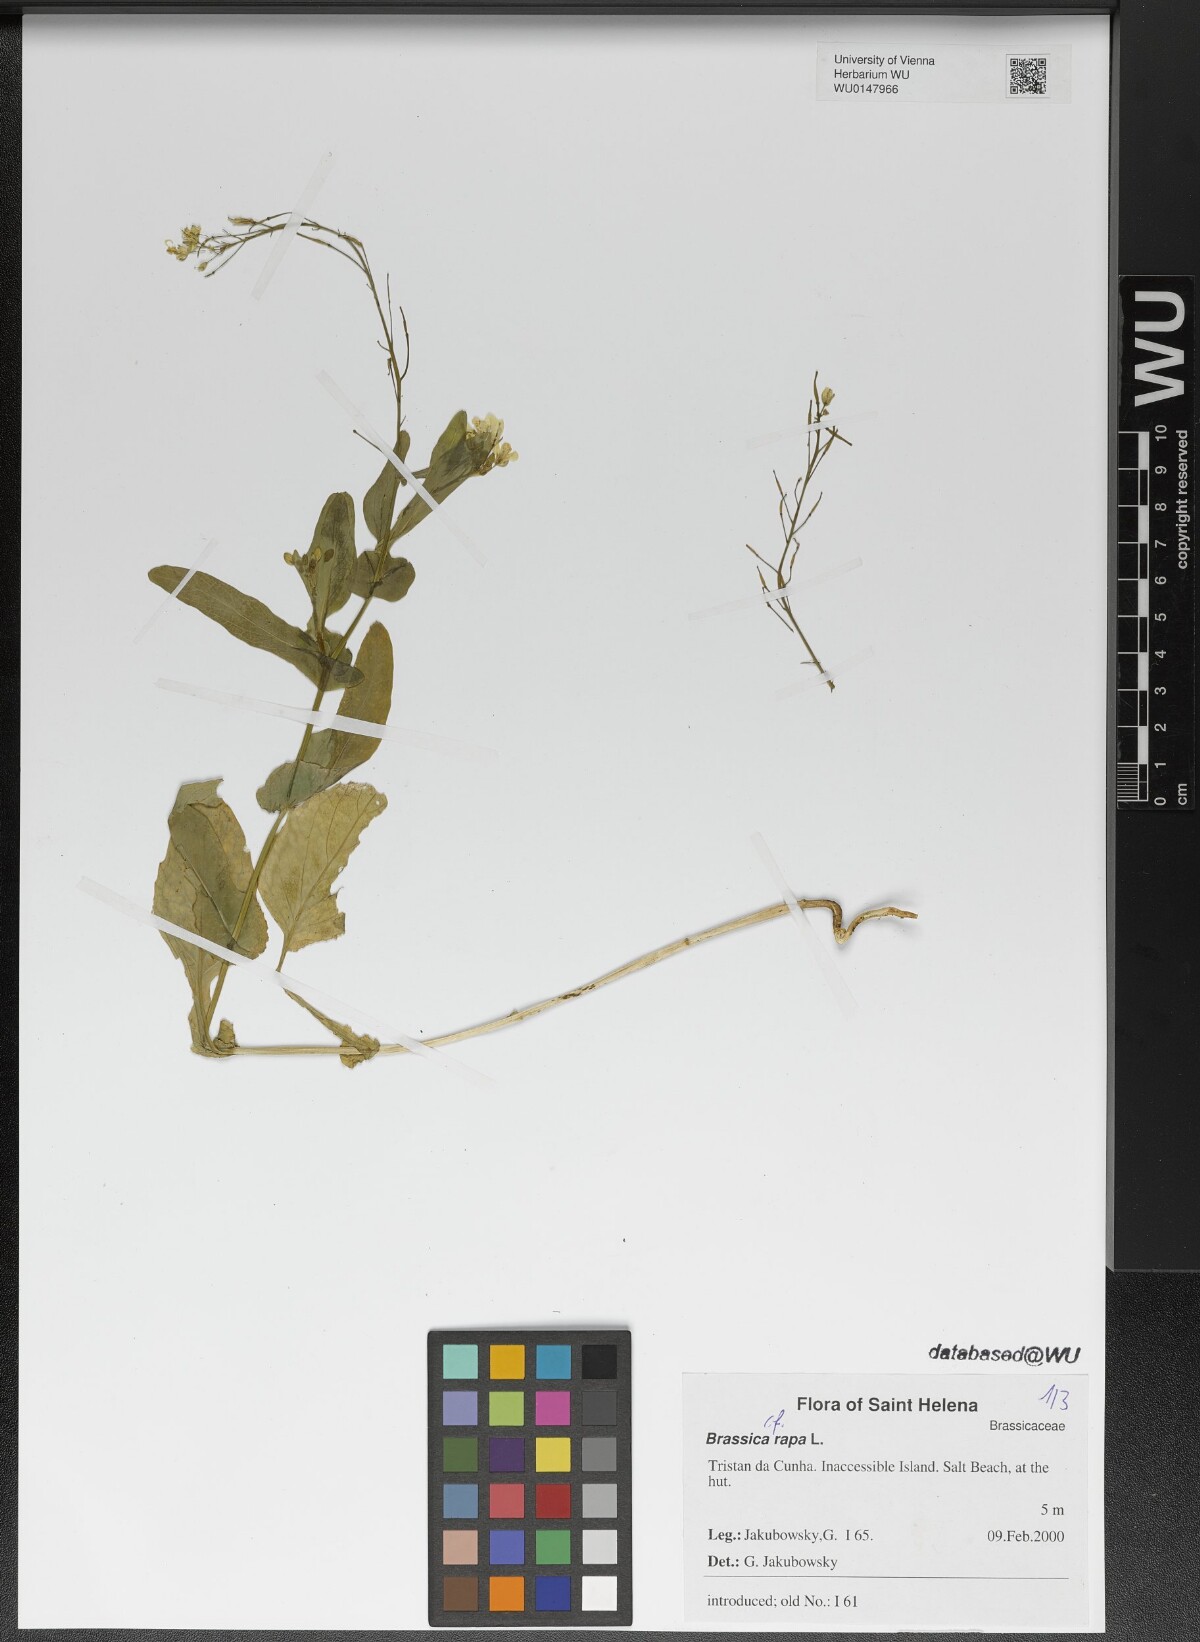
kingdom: Plantae
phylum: Tracheophyta
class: Magnoliopsida
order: Brassicales
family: Brassicaceae
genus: Brassica
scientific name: Brassica rapa
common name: Field mustard
